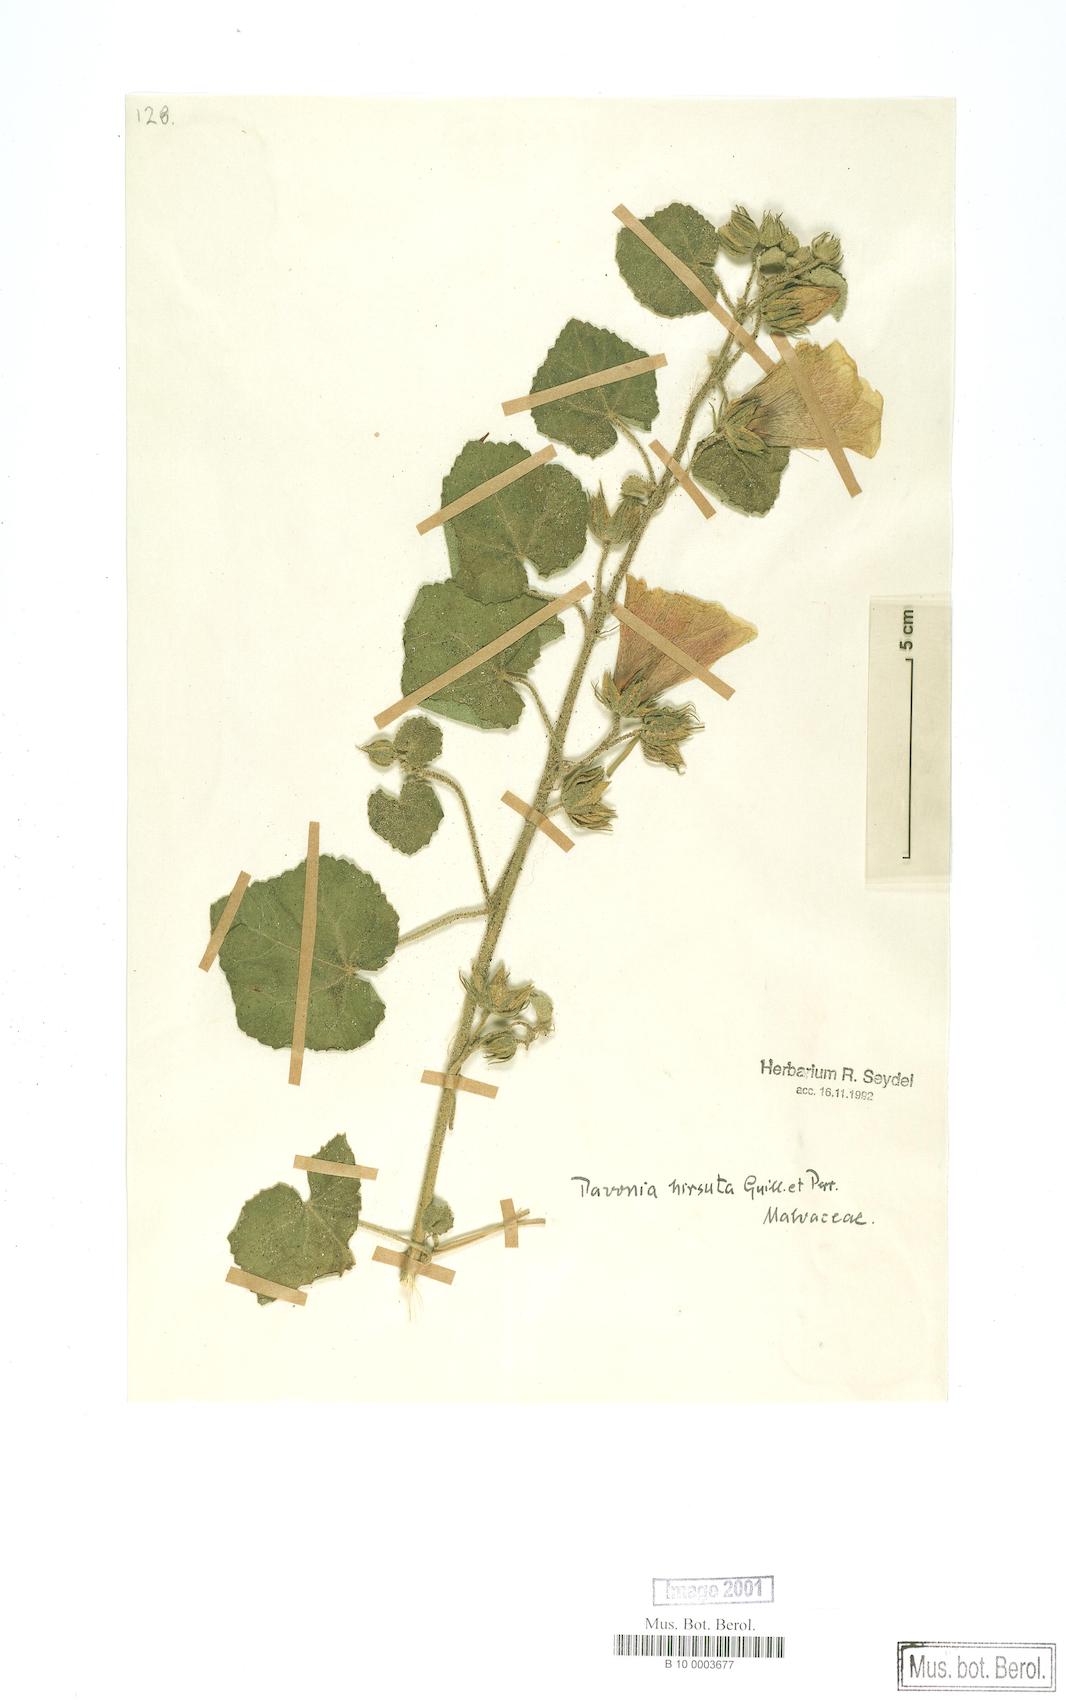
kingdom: Plantae
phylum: Tracheophyta
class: Magnoliopsida
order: Malvales
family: Malvaceae
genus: Pavonia
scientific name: Pavonia senegalensis
